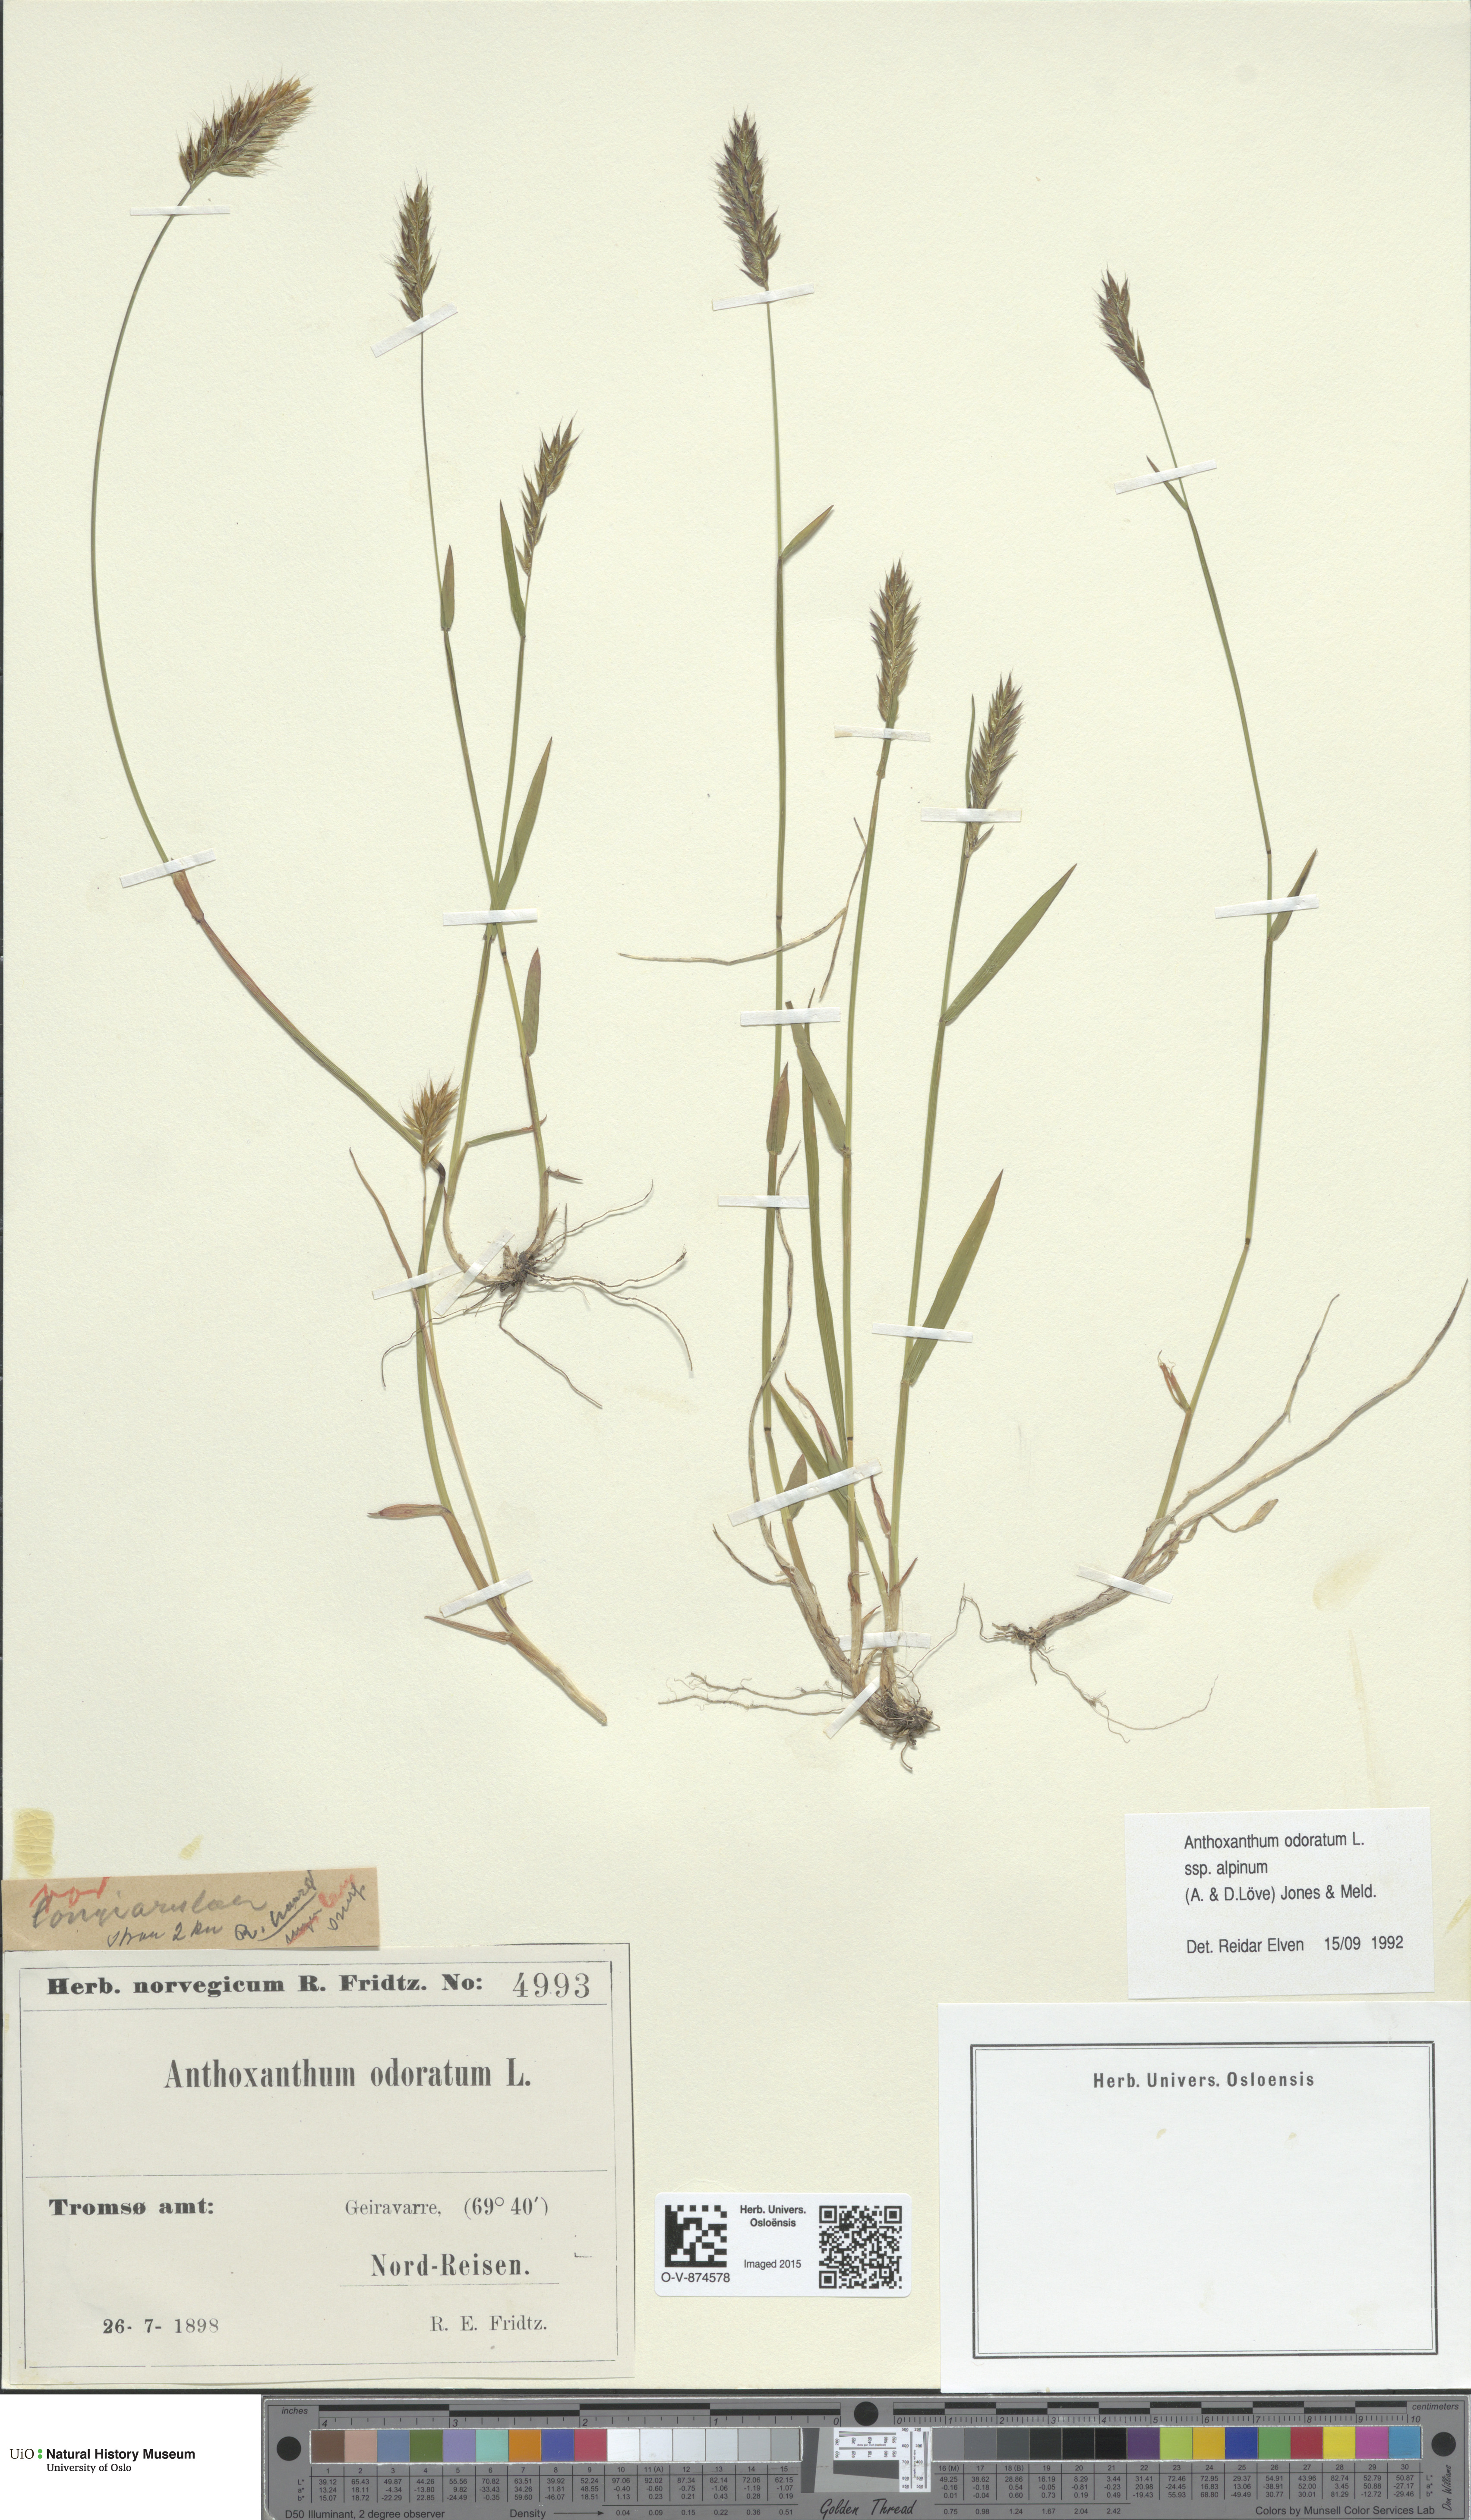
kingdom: Plantae
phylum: Tracheophyta
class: Liliopsida
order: Poales
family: Poaceae
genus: Anthoxanthum
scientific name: Anthoxanthum nipponicum
